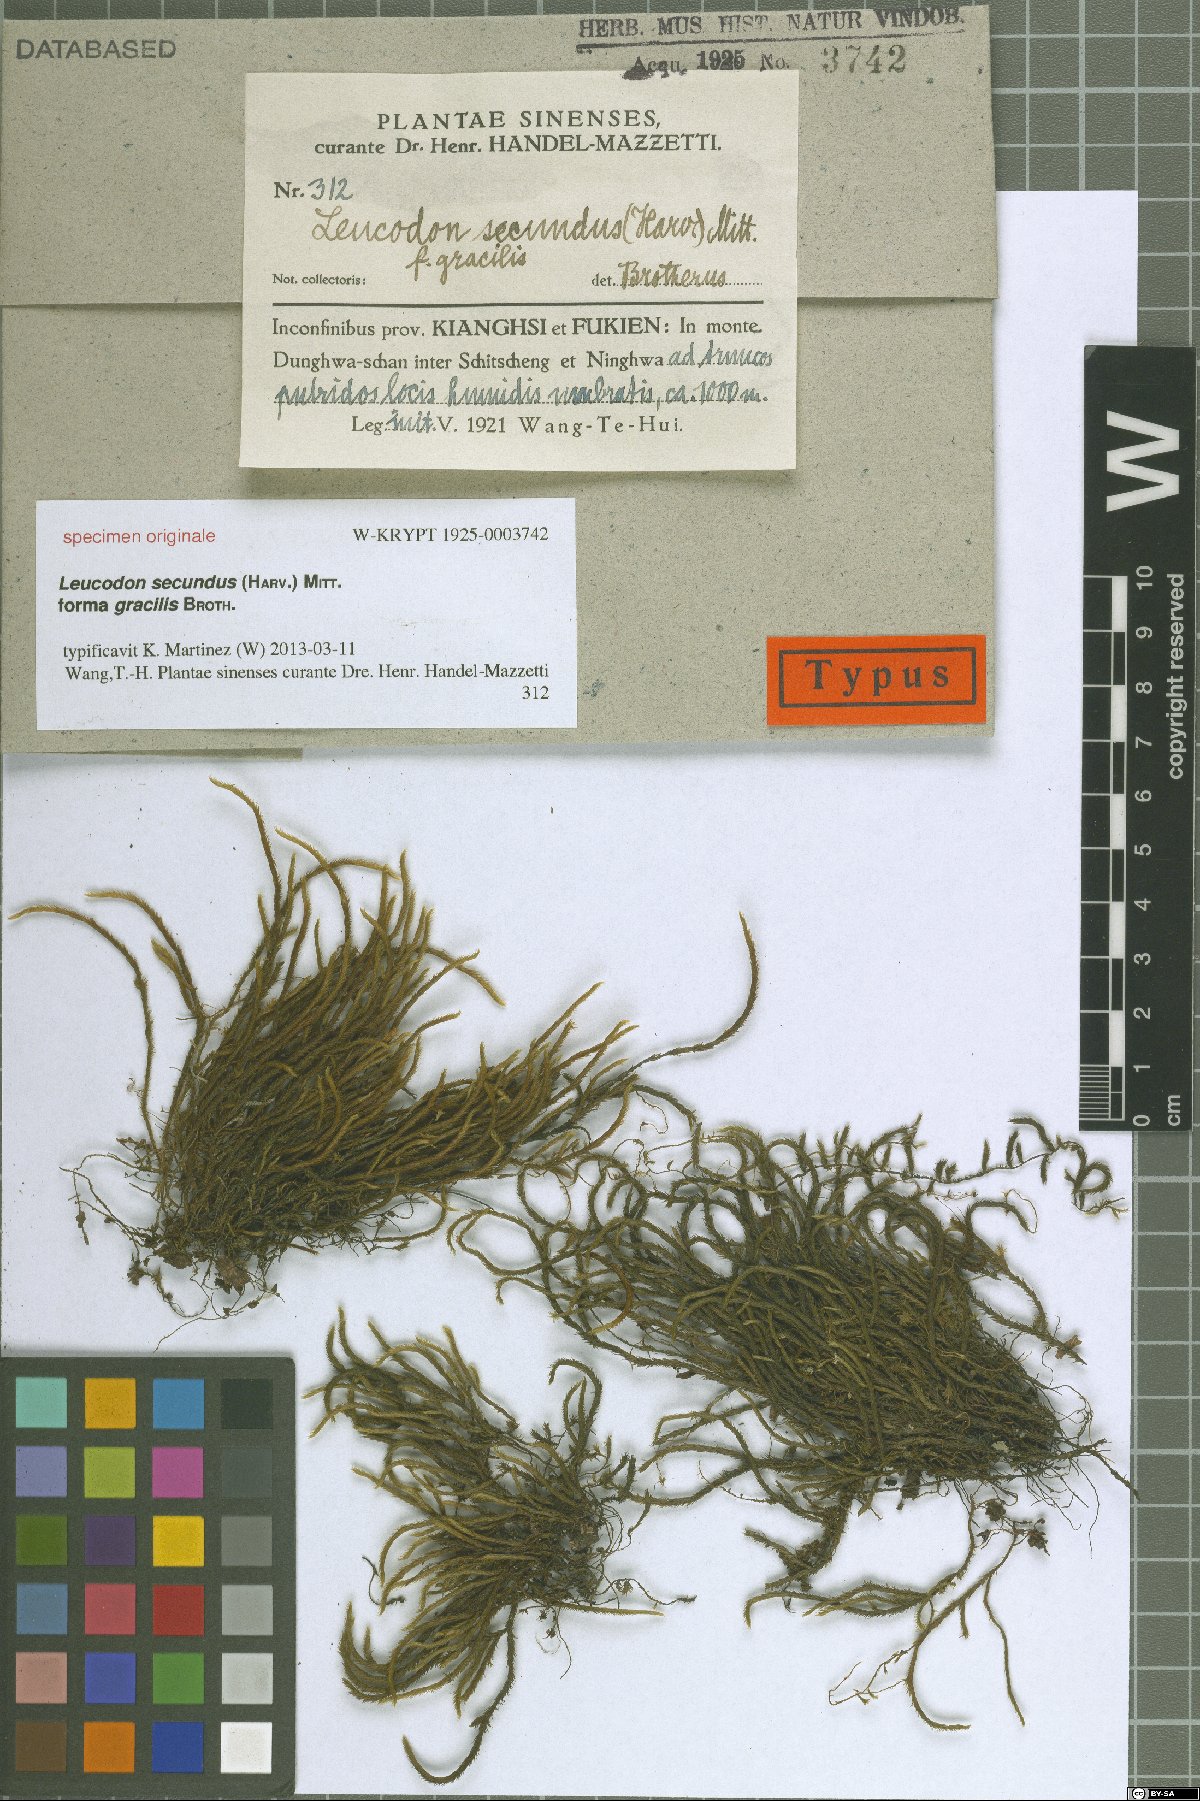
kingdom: Plantae
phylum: Bryophyta
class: Bryopsida
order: Hypnales
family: Leucodontaceae
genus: Leucodon
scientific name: Leucodon secundus
